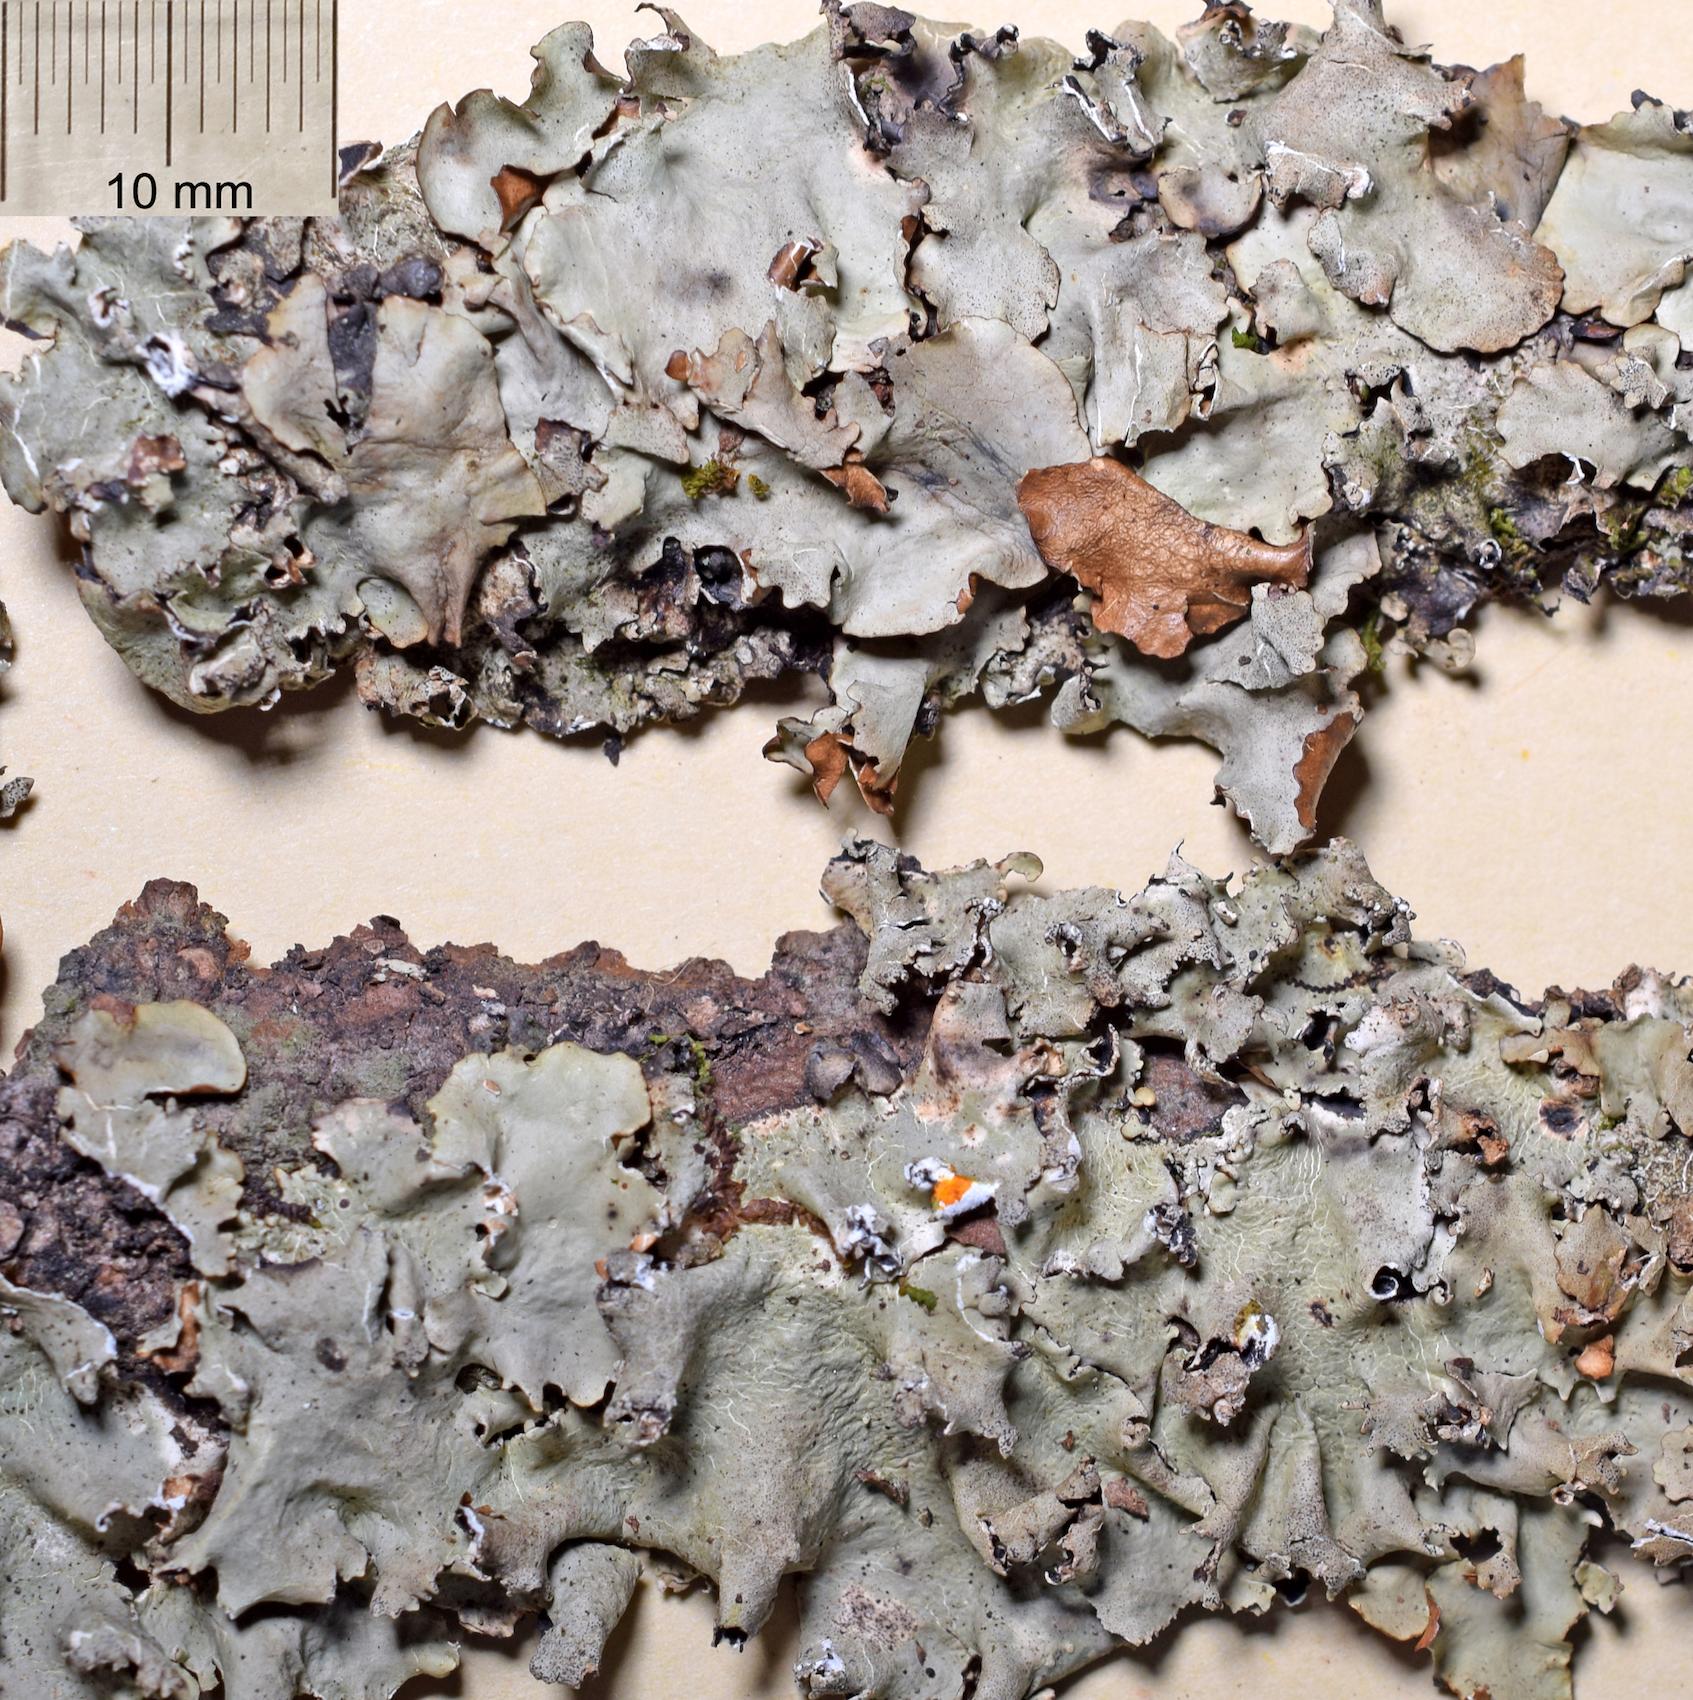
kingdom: Fungi
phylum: Ascomycota
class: Lecanoromycetes
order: Lecanorales
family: Parmeliaceae
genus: Parmotrema
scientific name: Parmotrema
